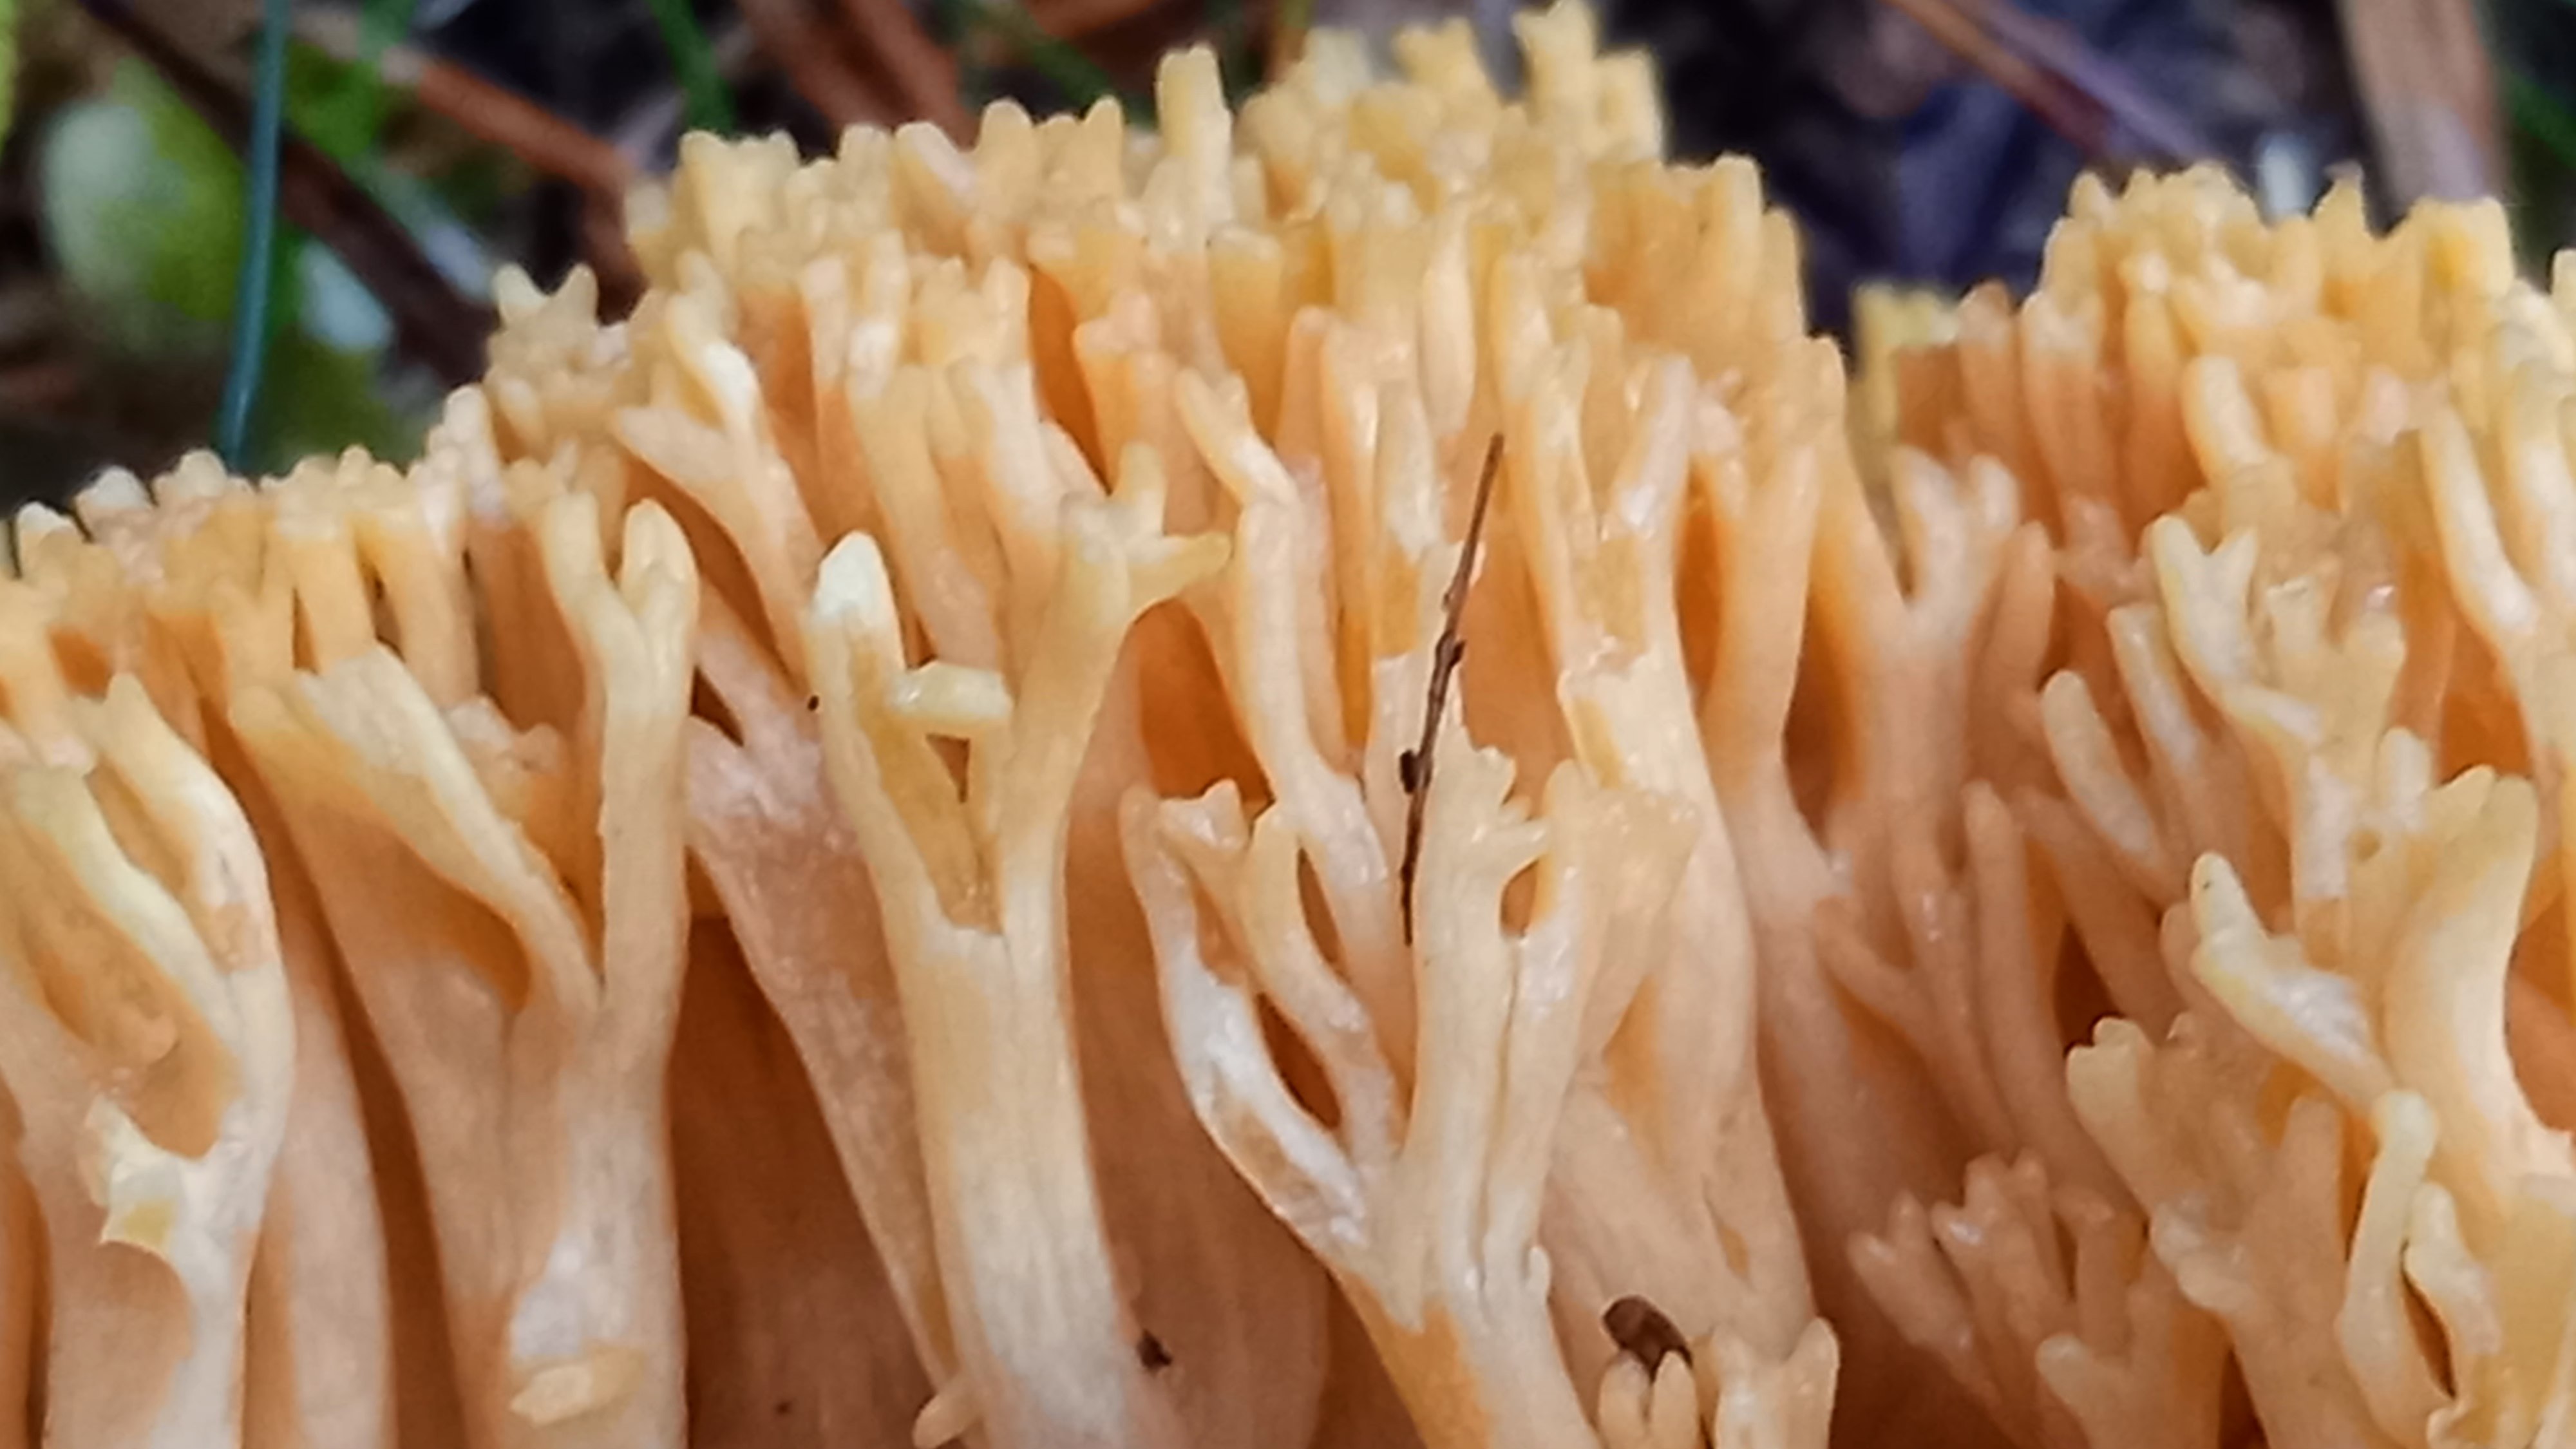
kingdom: Fungi
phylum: Basidiomycota
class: Agaricomycetes
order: Gomphales
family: Gomphaceae
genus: Ramaria
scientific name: Ramaria
